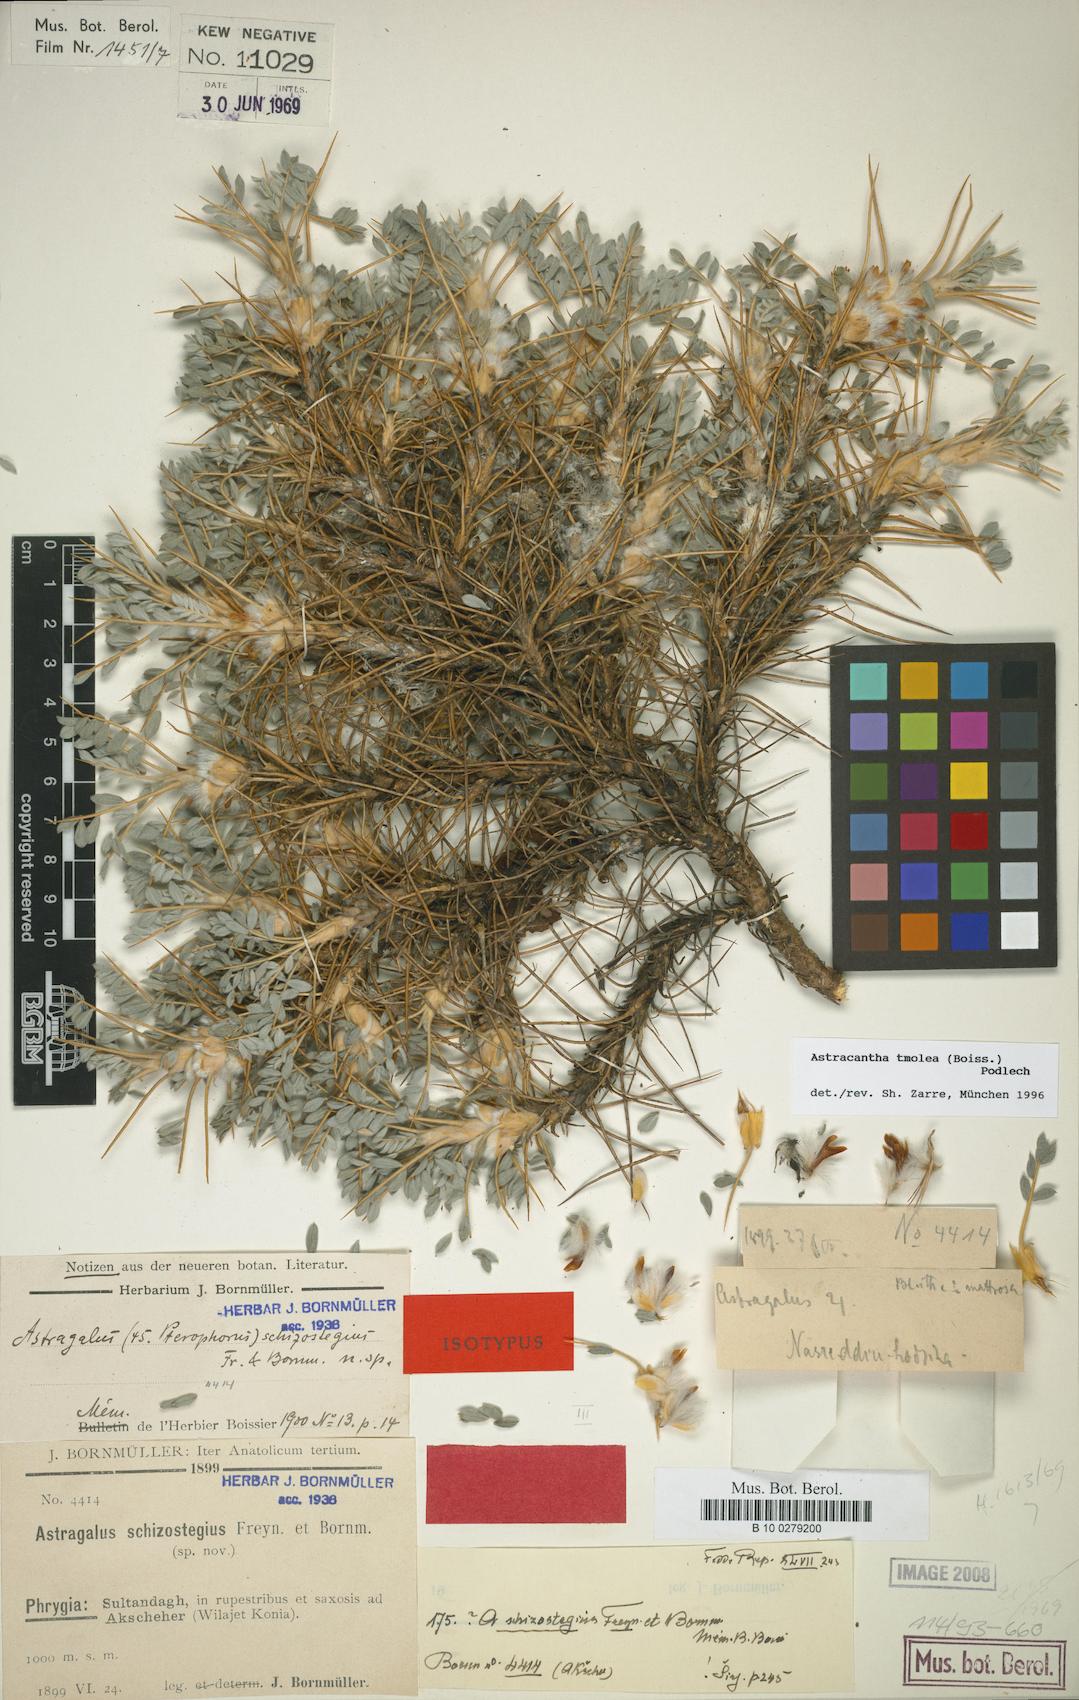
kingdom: Plantae
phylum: Tracheophyta
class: Magnoliopsida
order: Fabales
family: Fabaceae
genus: Astragalus
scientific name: Astragalus tmoleus
